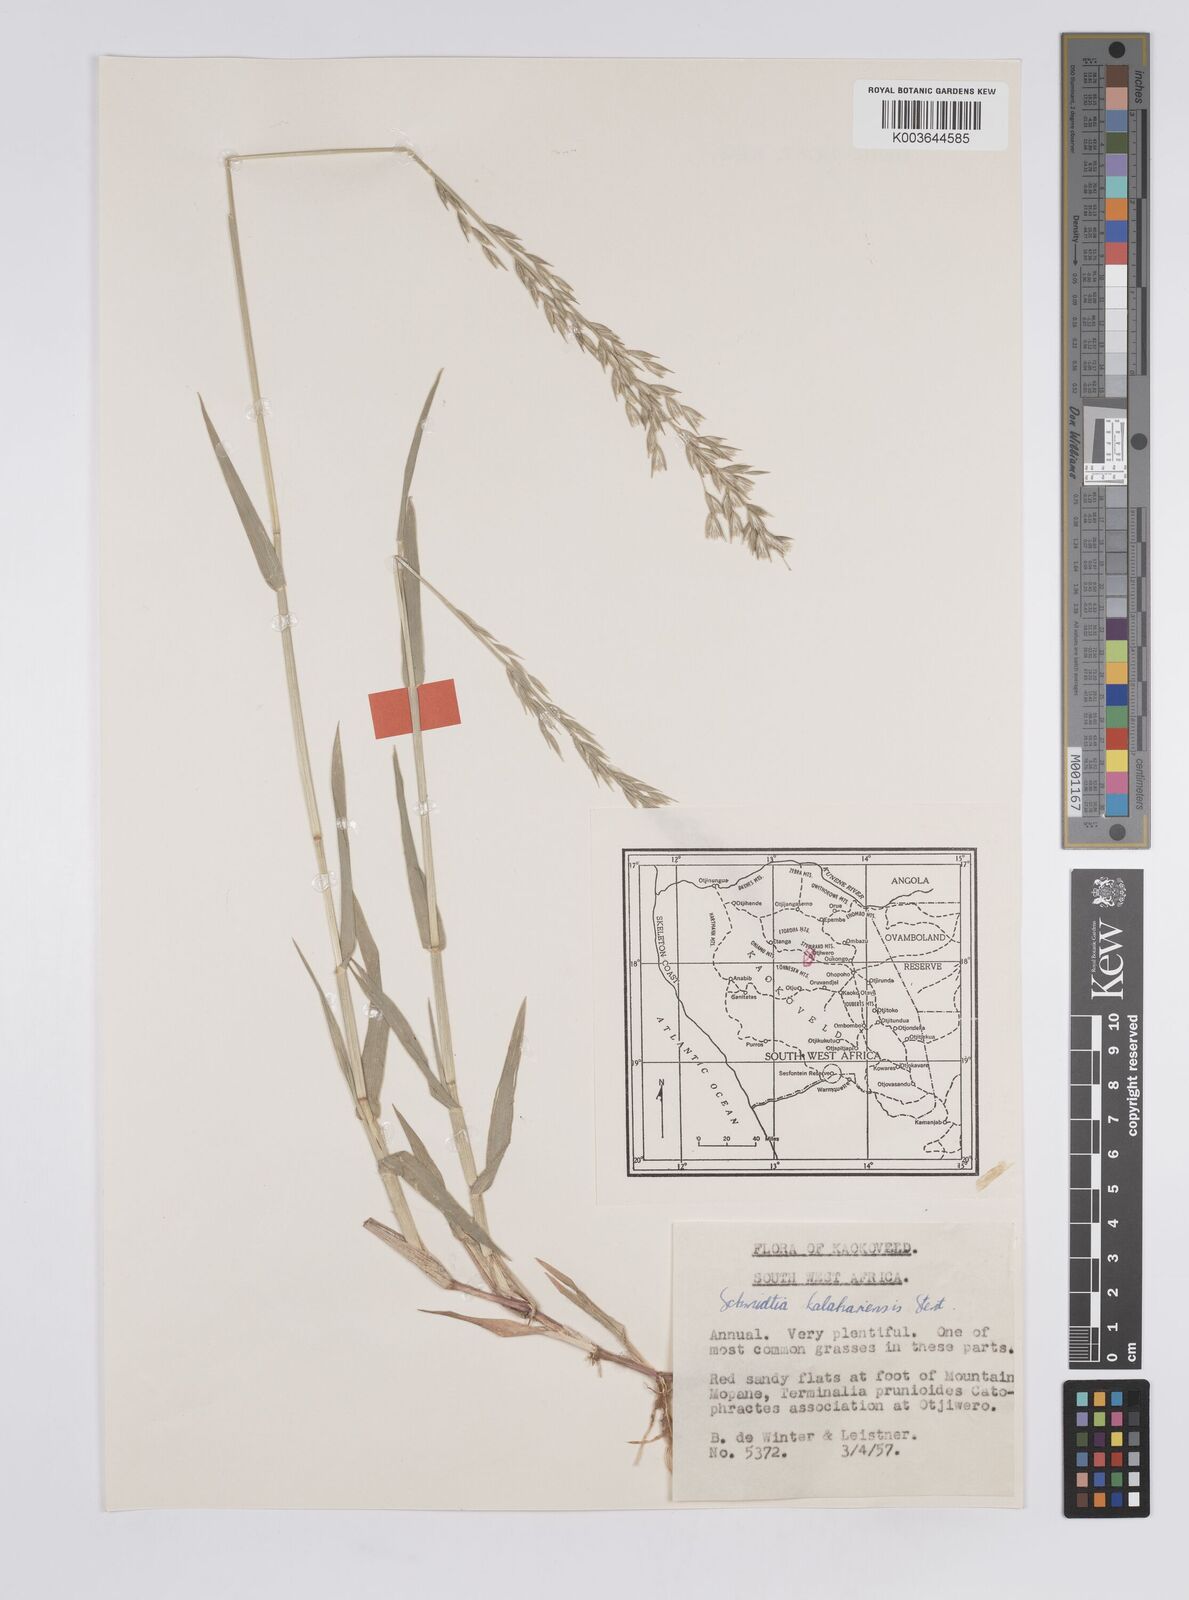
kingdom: Plantae
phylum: Tracheophyta
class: Liliopsida
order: Poales
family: Poaceae
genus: Schmidtia
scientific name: Schmidtia kalahariensis
